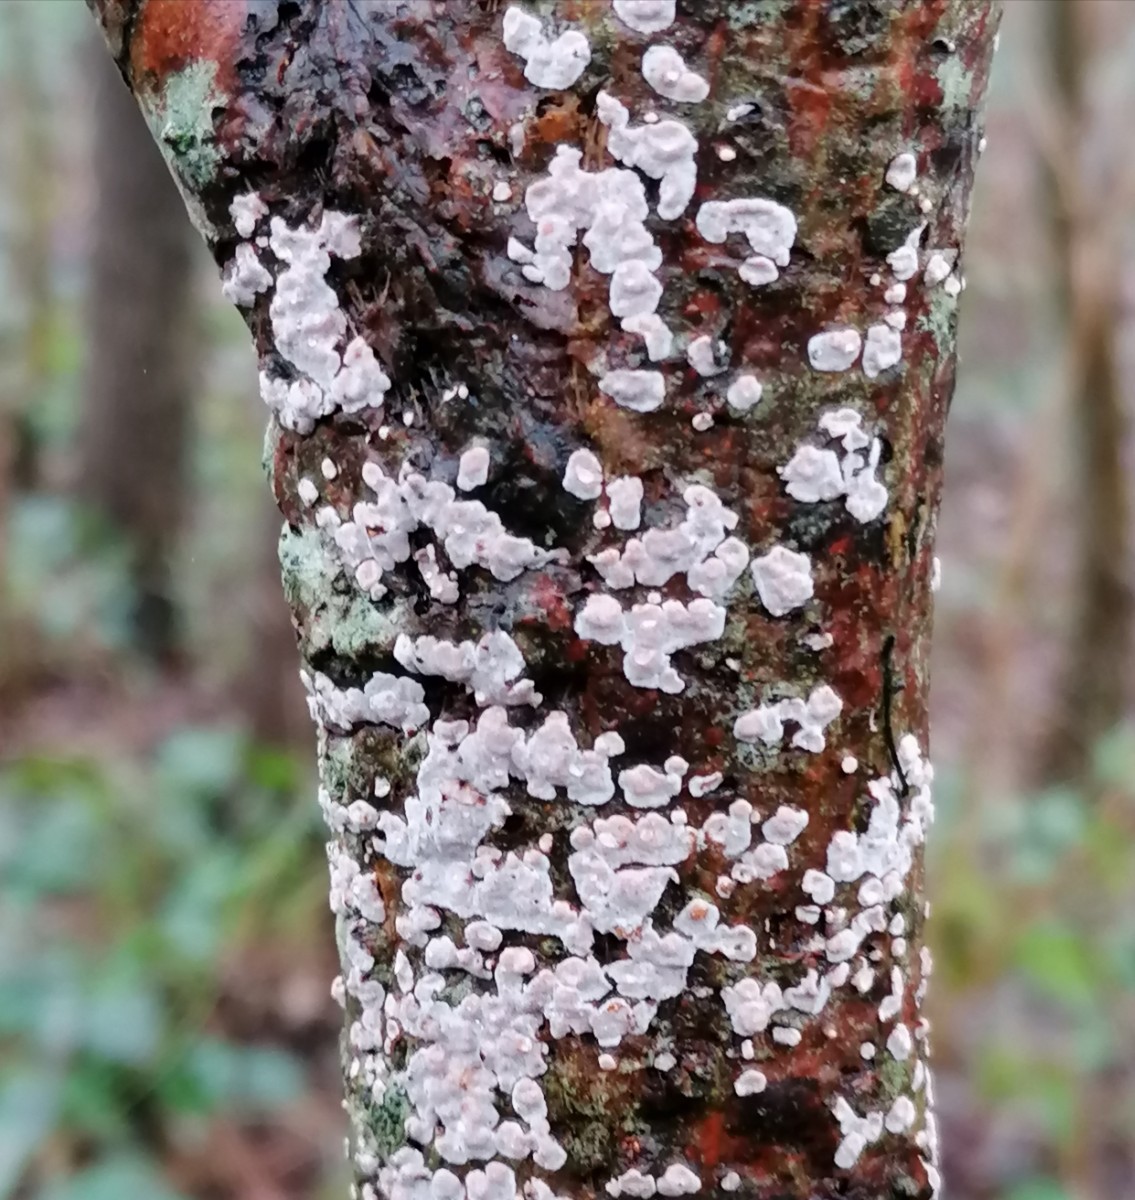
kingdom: Fungi
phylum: Basidiomycota
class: Agaricomycetes
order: Russulales
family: Peniophoraceae
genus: Peniophora
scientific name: Peniophora polygonia
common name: polygon-voksskind
